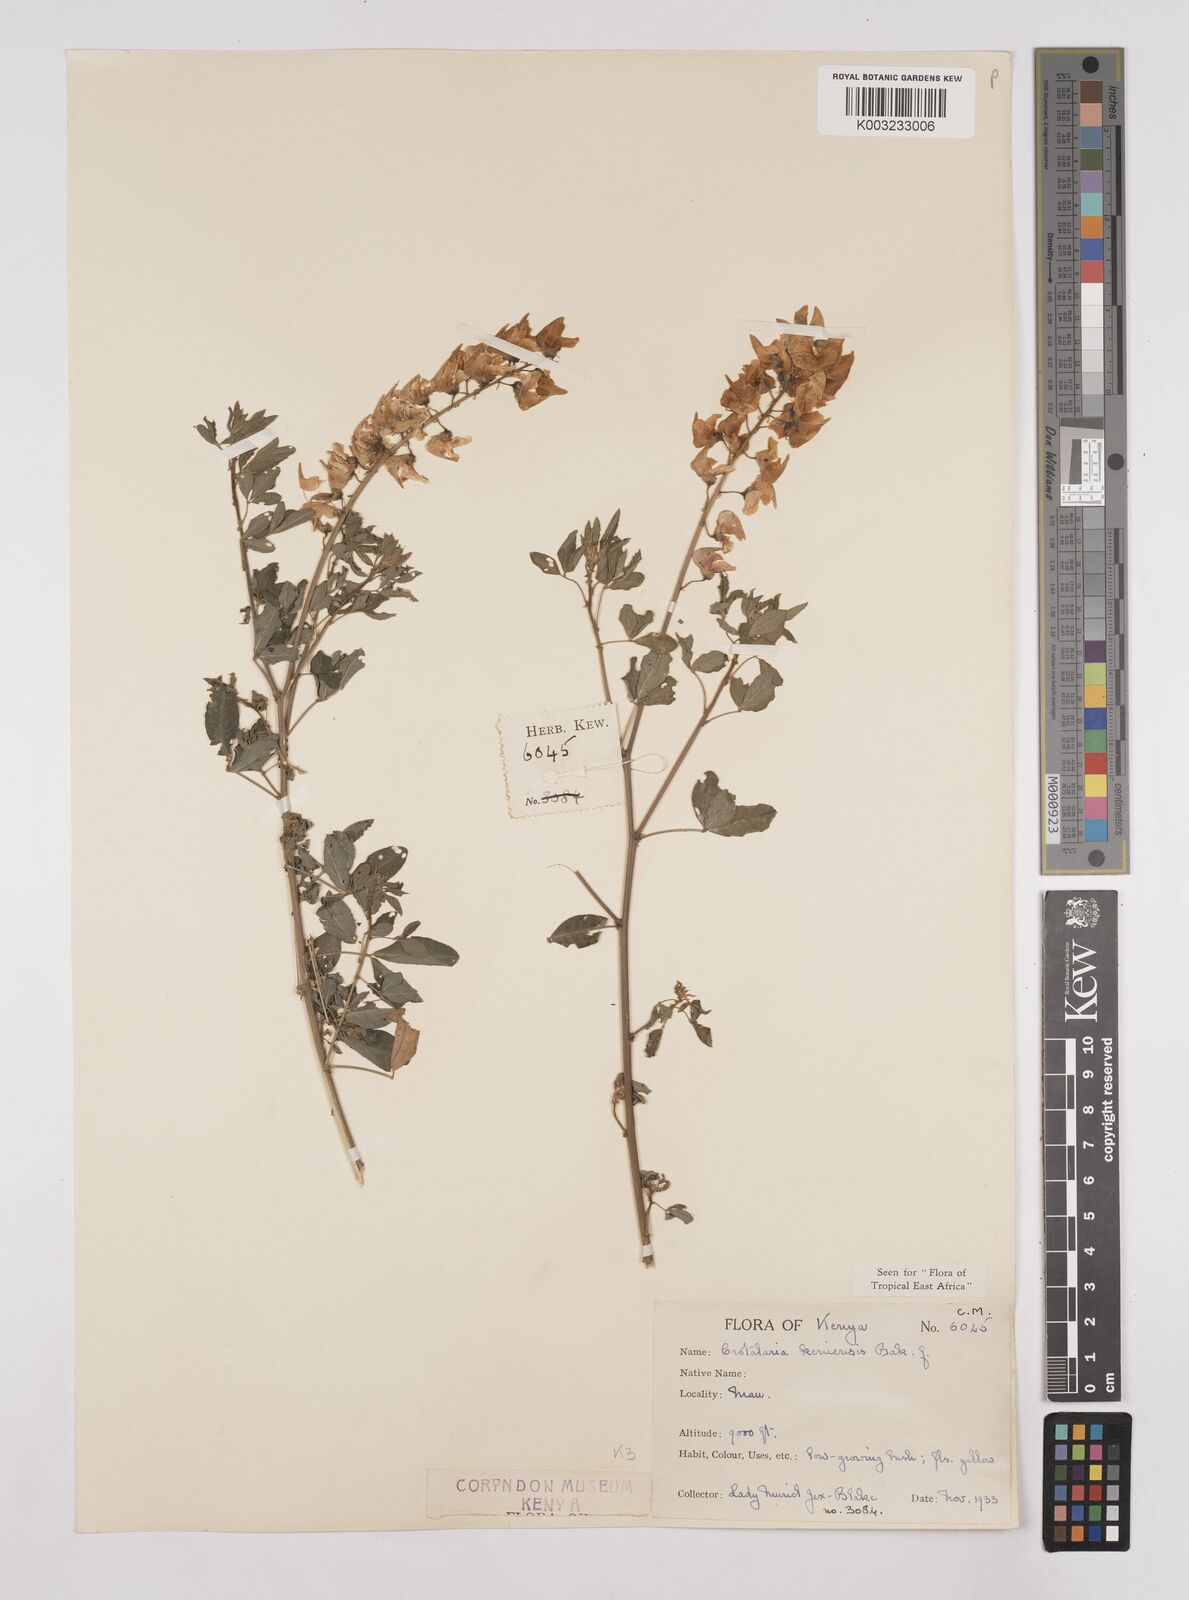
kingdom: Plantae
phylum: Tracheophyta
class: Magnoliopsida
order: Fabales
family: Fabaceae
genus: Crotalaria
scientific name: Crotalaria keniensis
